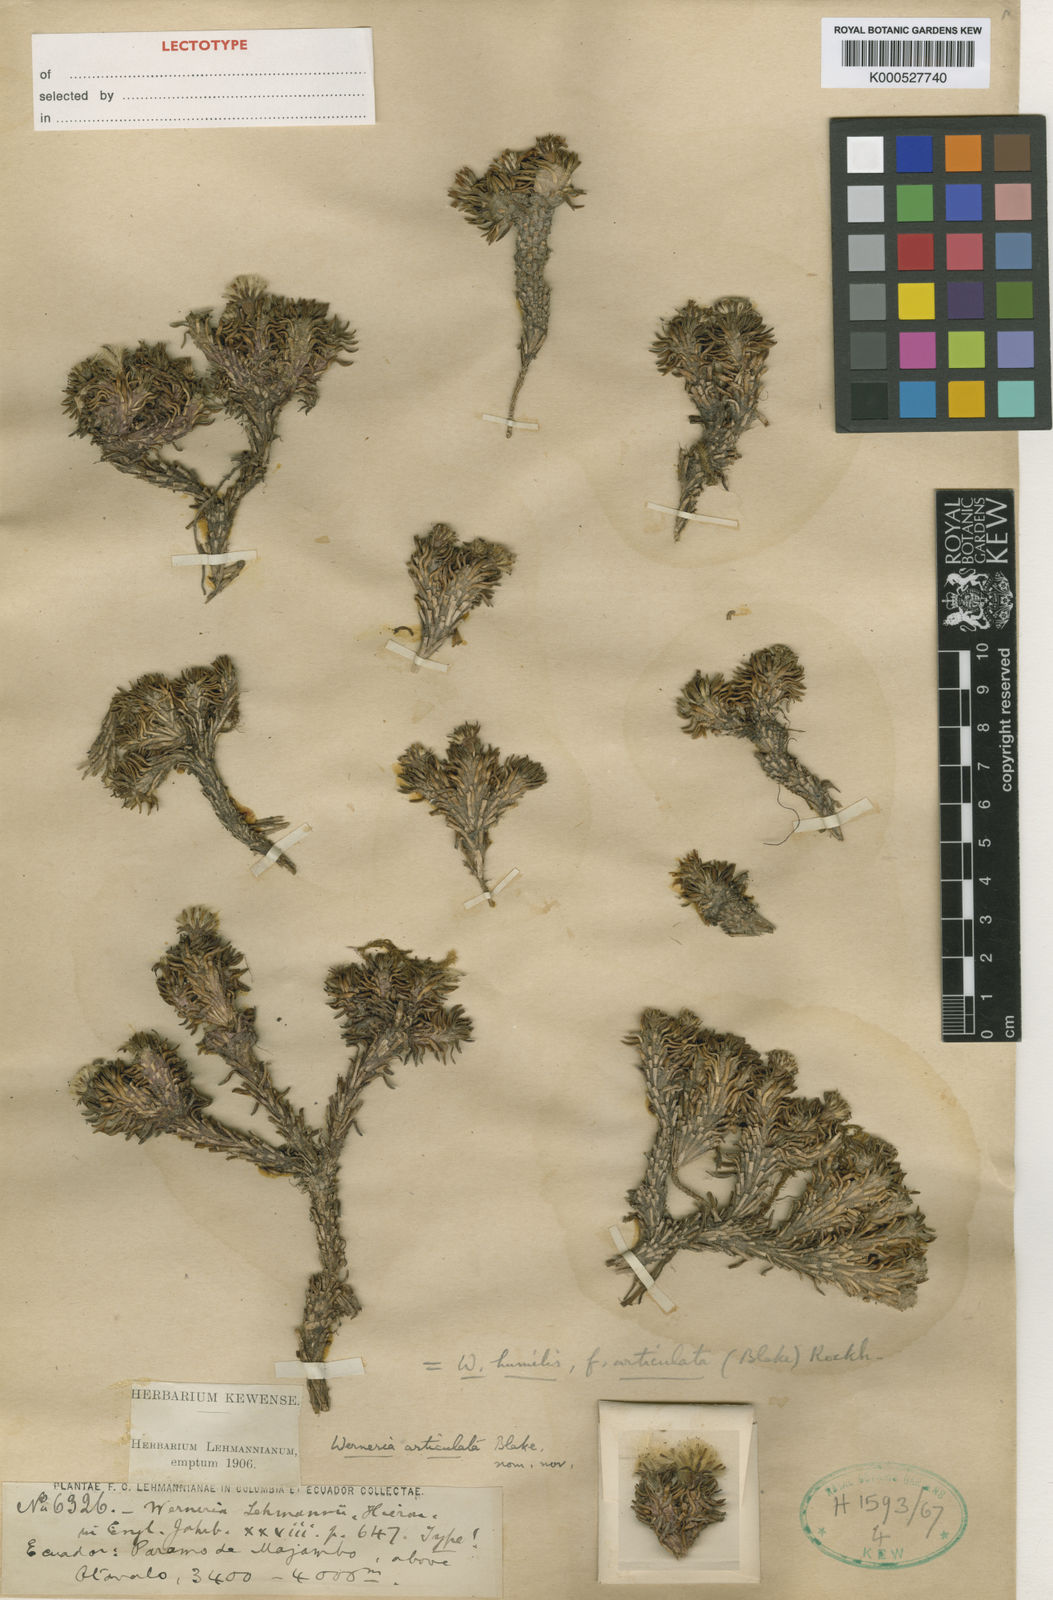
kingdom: Plantae
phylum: Tracheophyta
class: Magnoliopsida
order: Asterales
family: Asteraceae
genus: Werneria
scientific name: Werneria humilis
